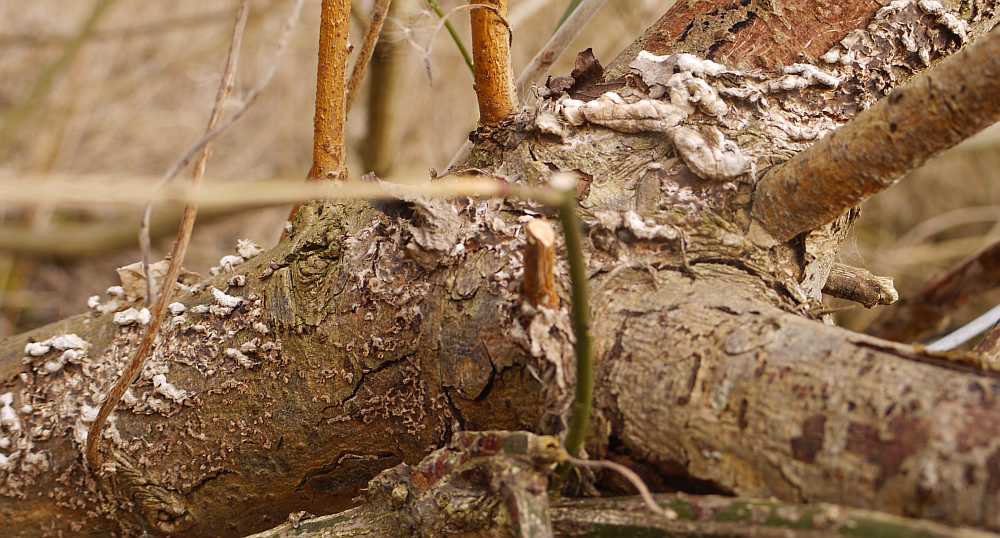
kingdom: Fungi
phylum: Basidiomycota
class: Agaricomycetes
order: Agaricales
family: Cyphellaceae
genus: Chondrostereum
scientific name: Chondrostereum purpureum
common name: purpurlædersvamp
